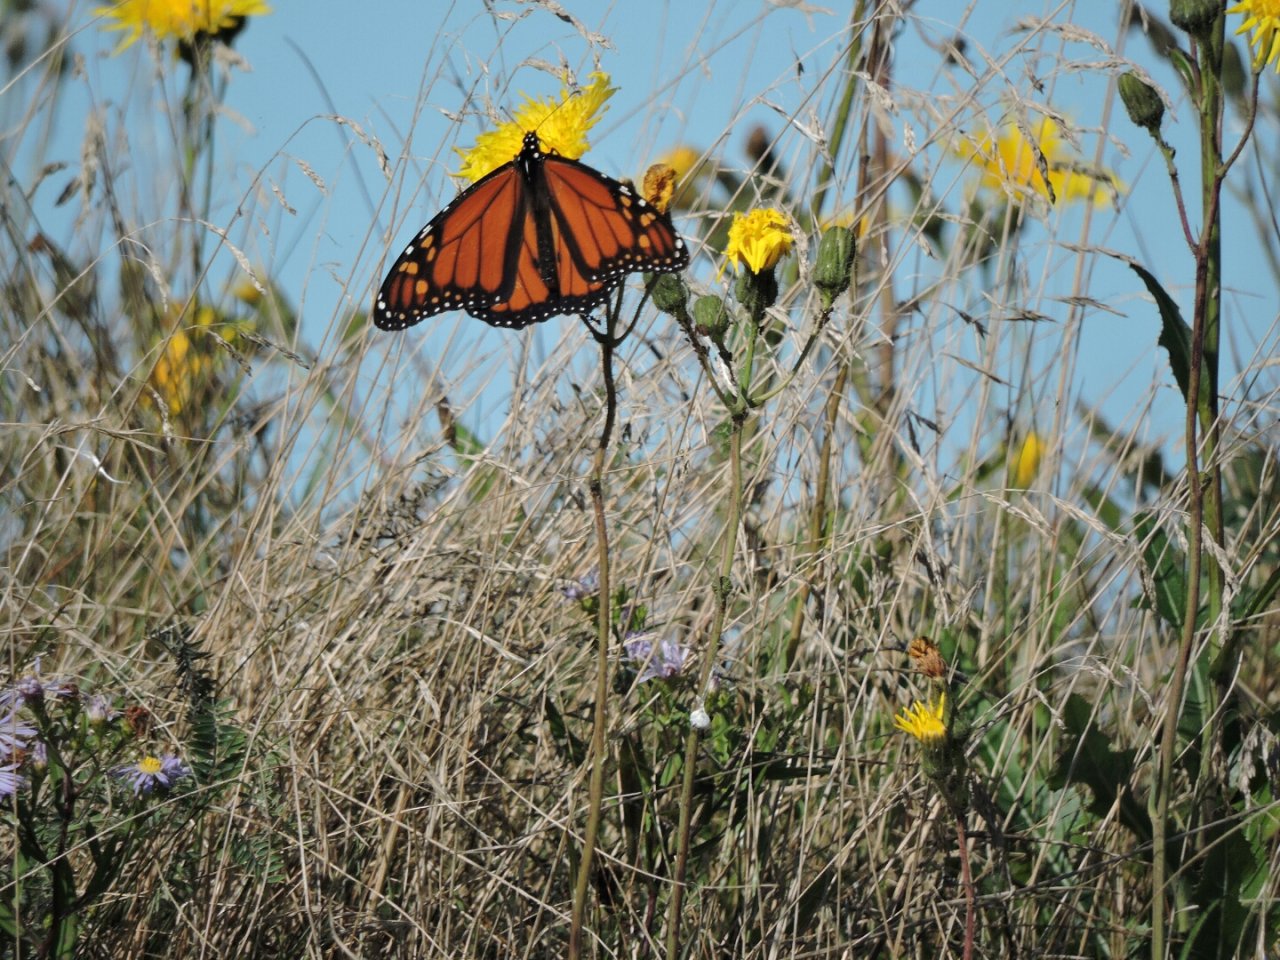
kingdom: Animalia
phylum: Arthropoda
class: Insecta
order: Lepidoptera
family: Nymphalidae
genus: Danaus
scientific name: Danaus plexippus
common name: Monarch
